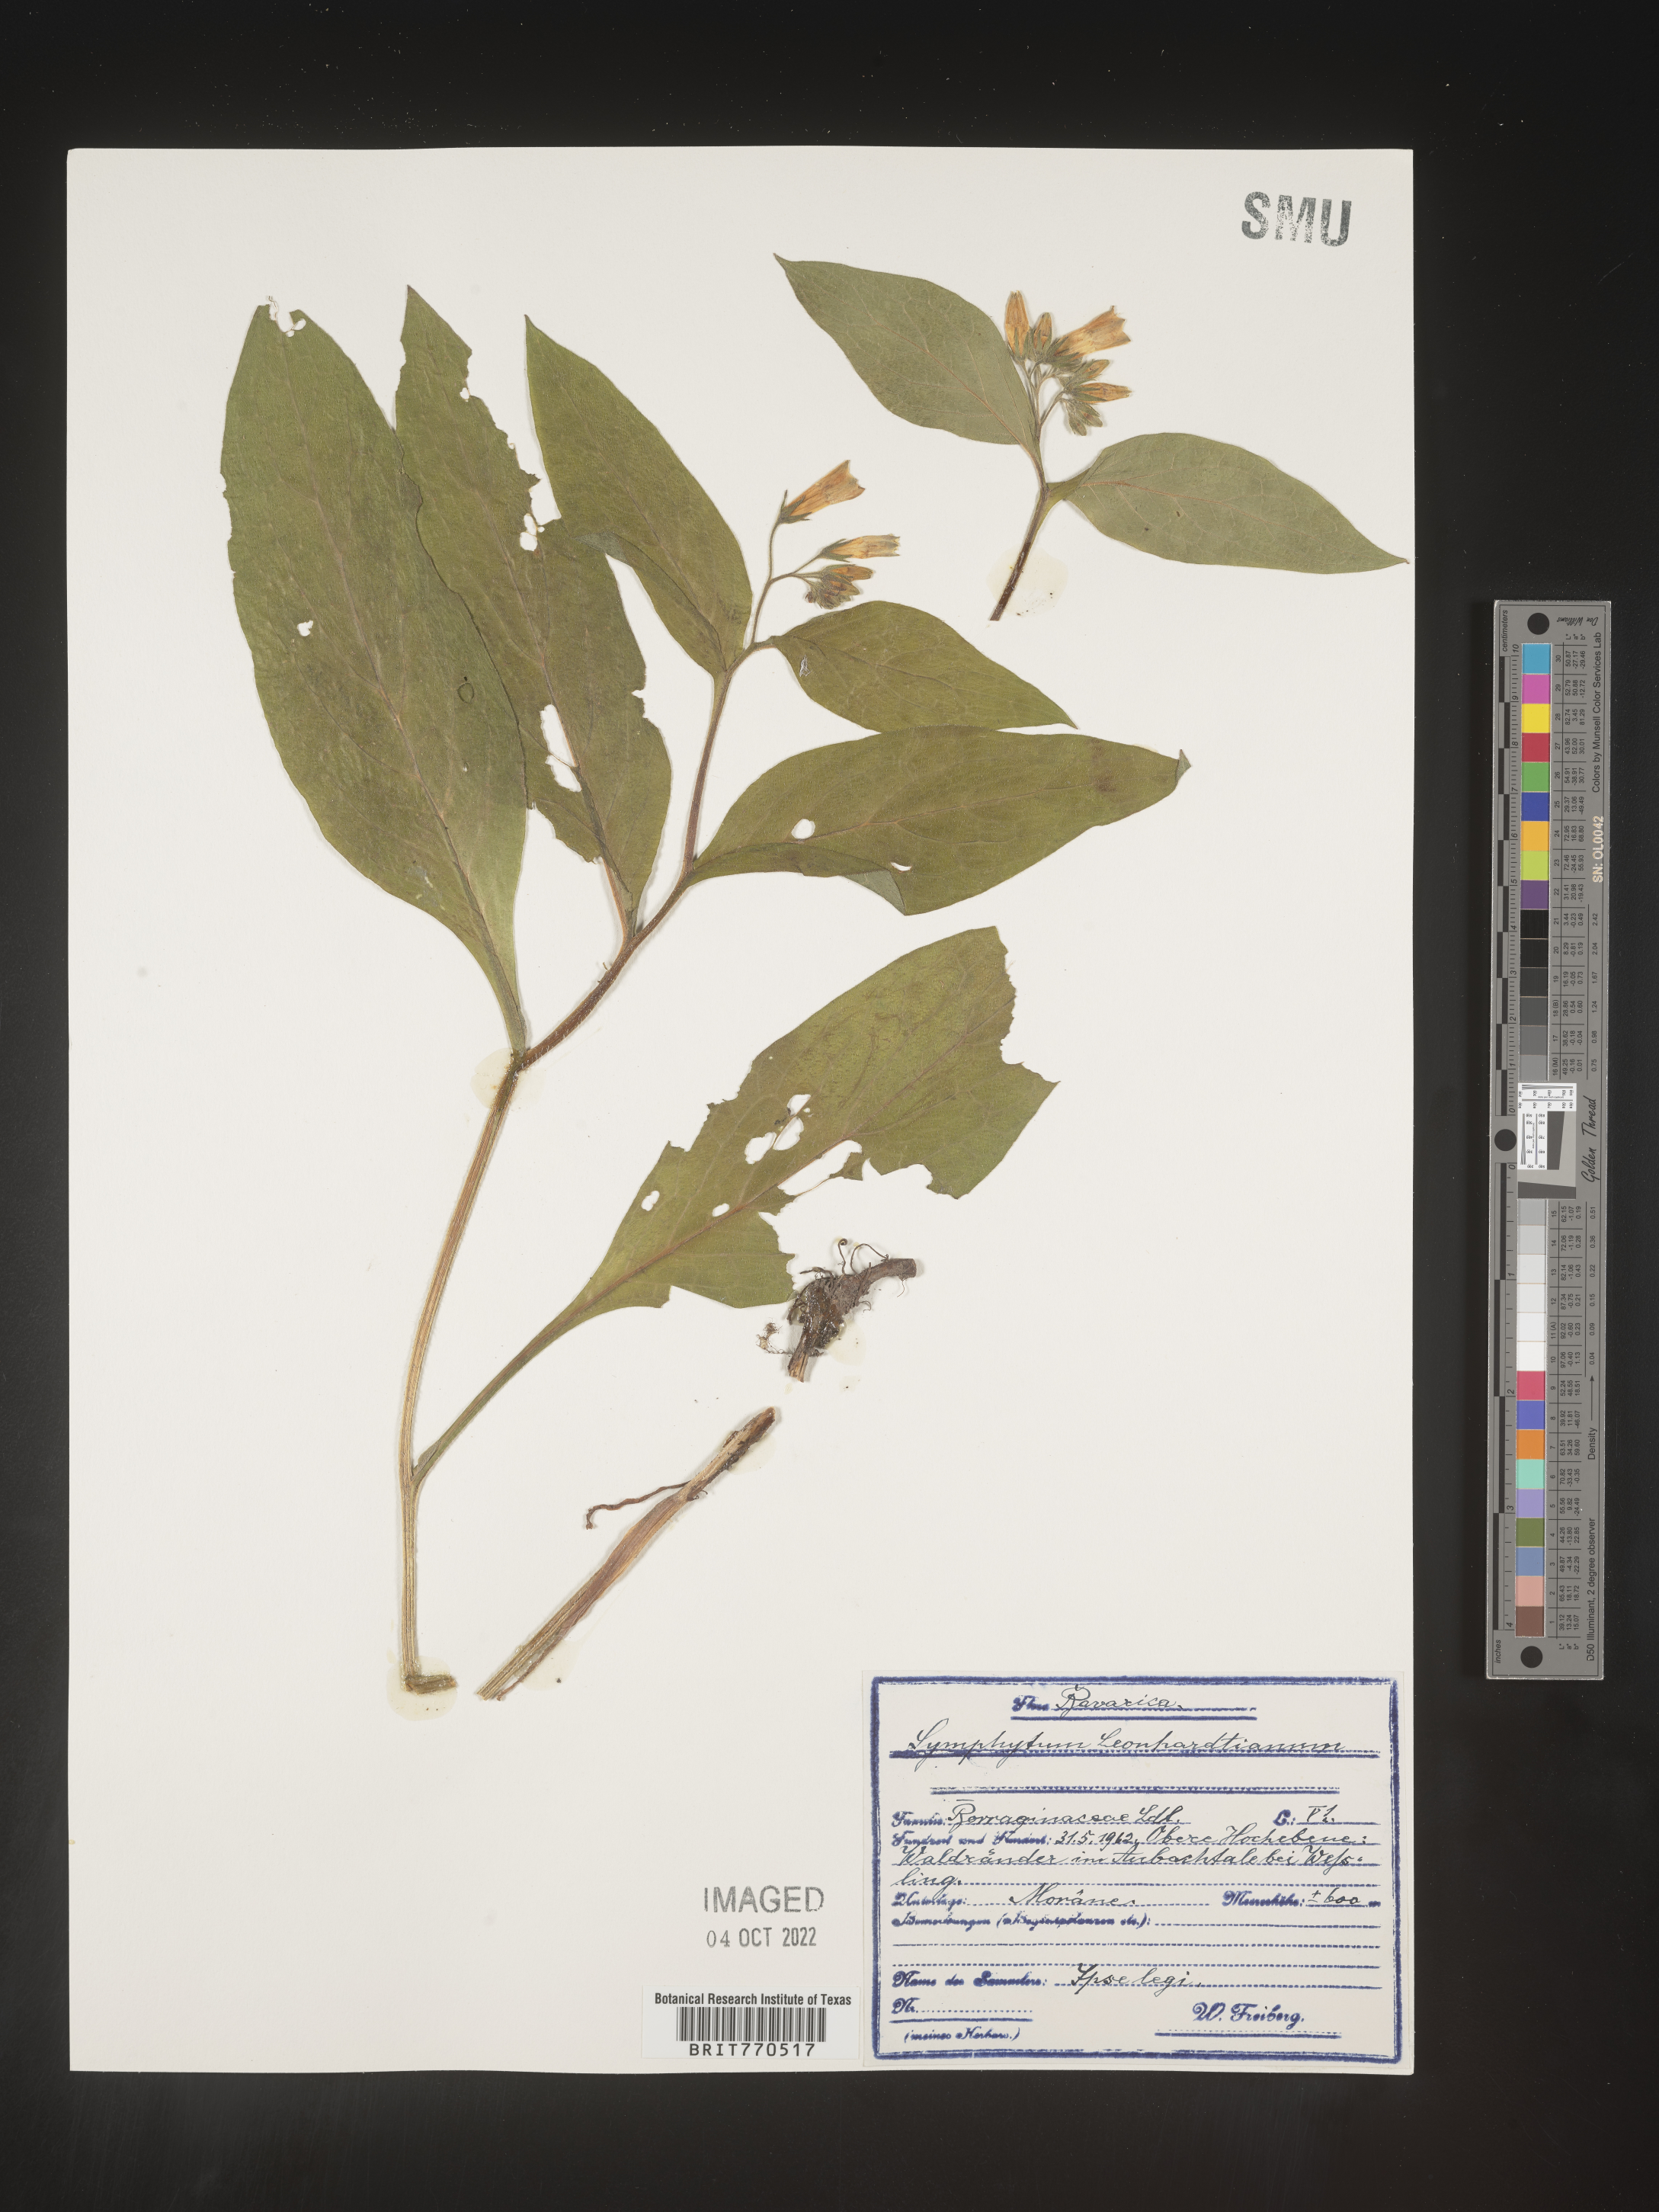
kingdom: Plantae
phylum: Tracheophyta
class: Magnoliopsida
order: Boraginales
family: Boraginaceae
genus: Symphytum
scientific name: Symphytum
